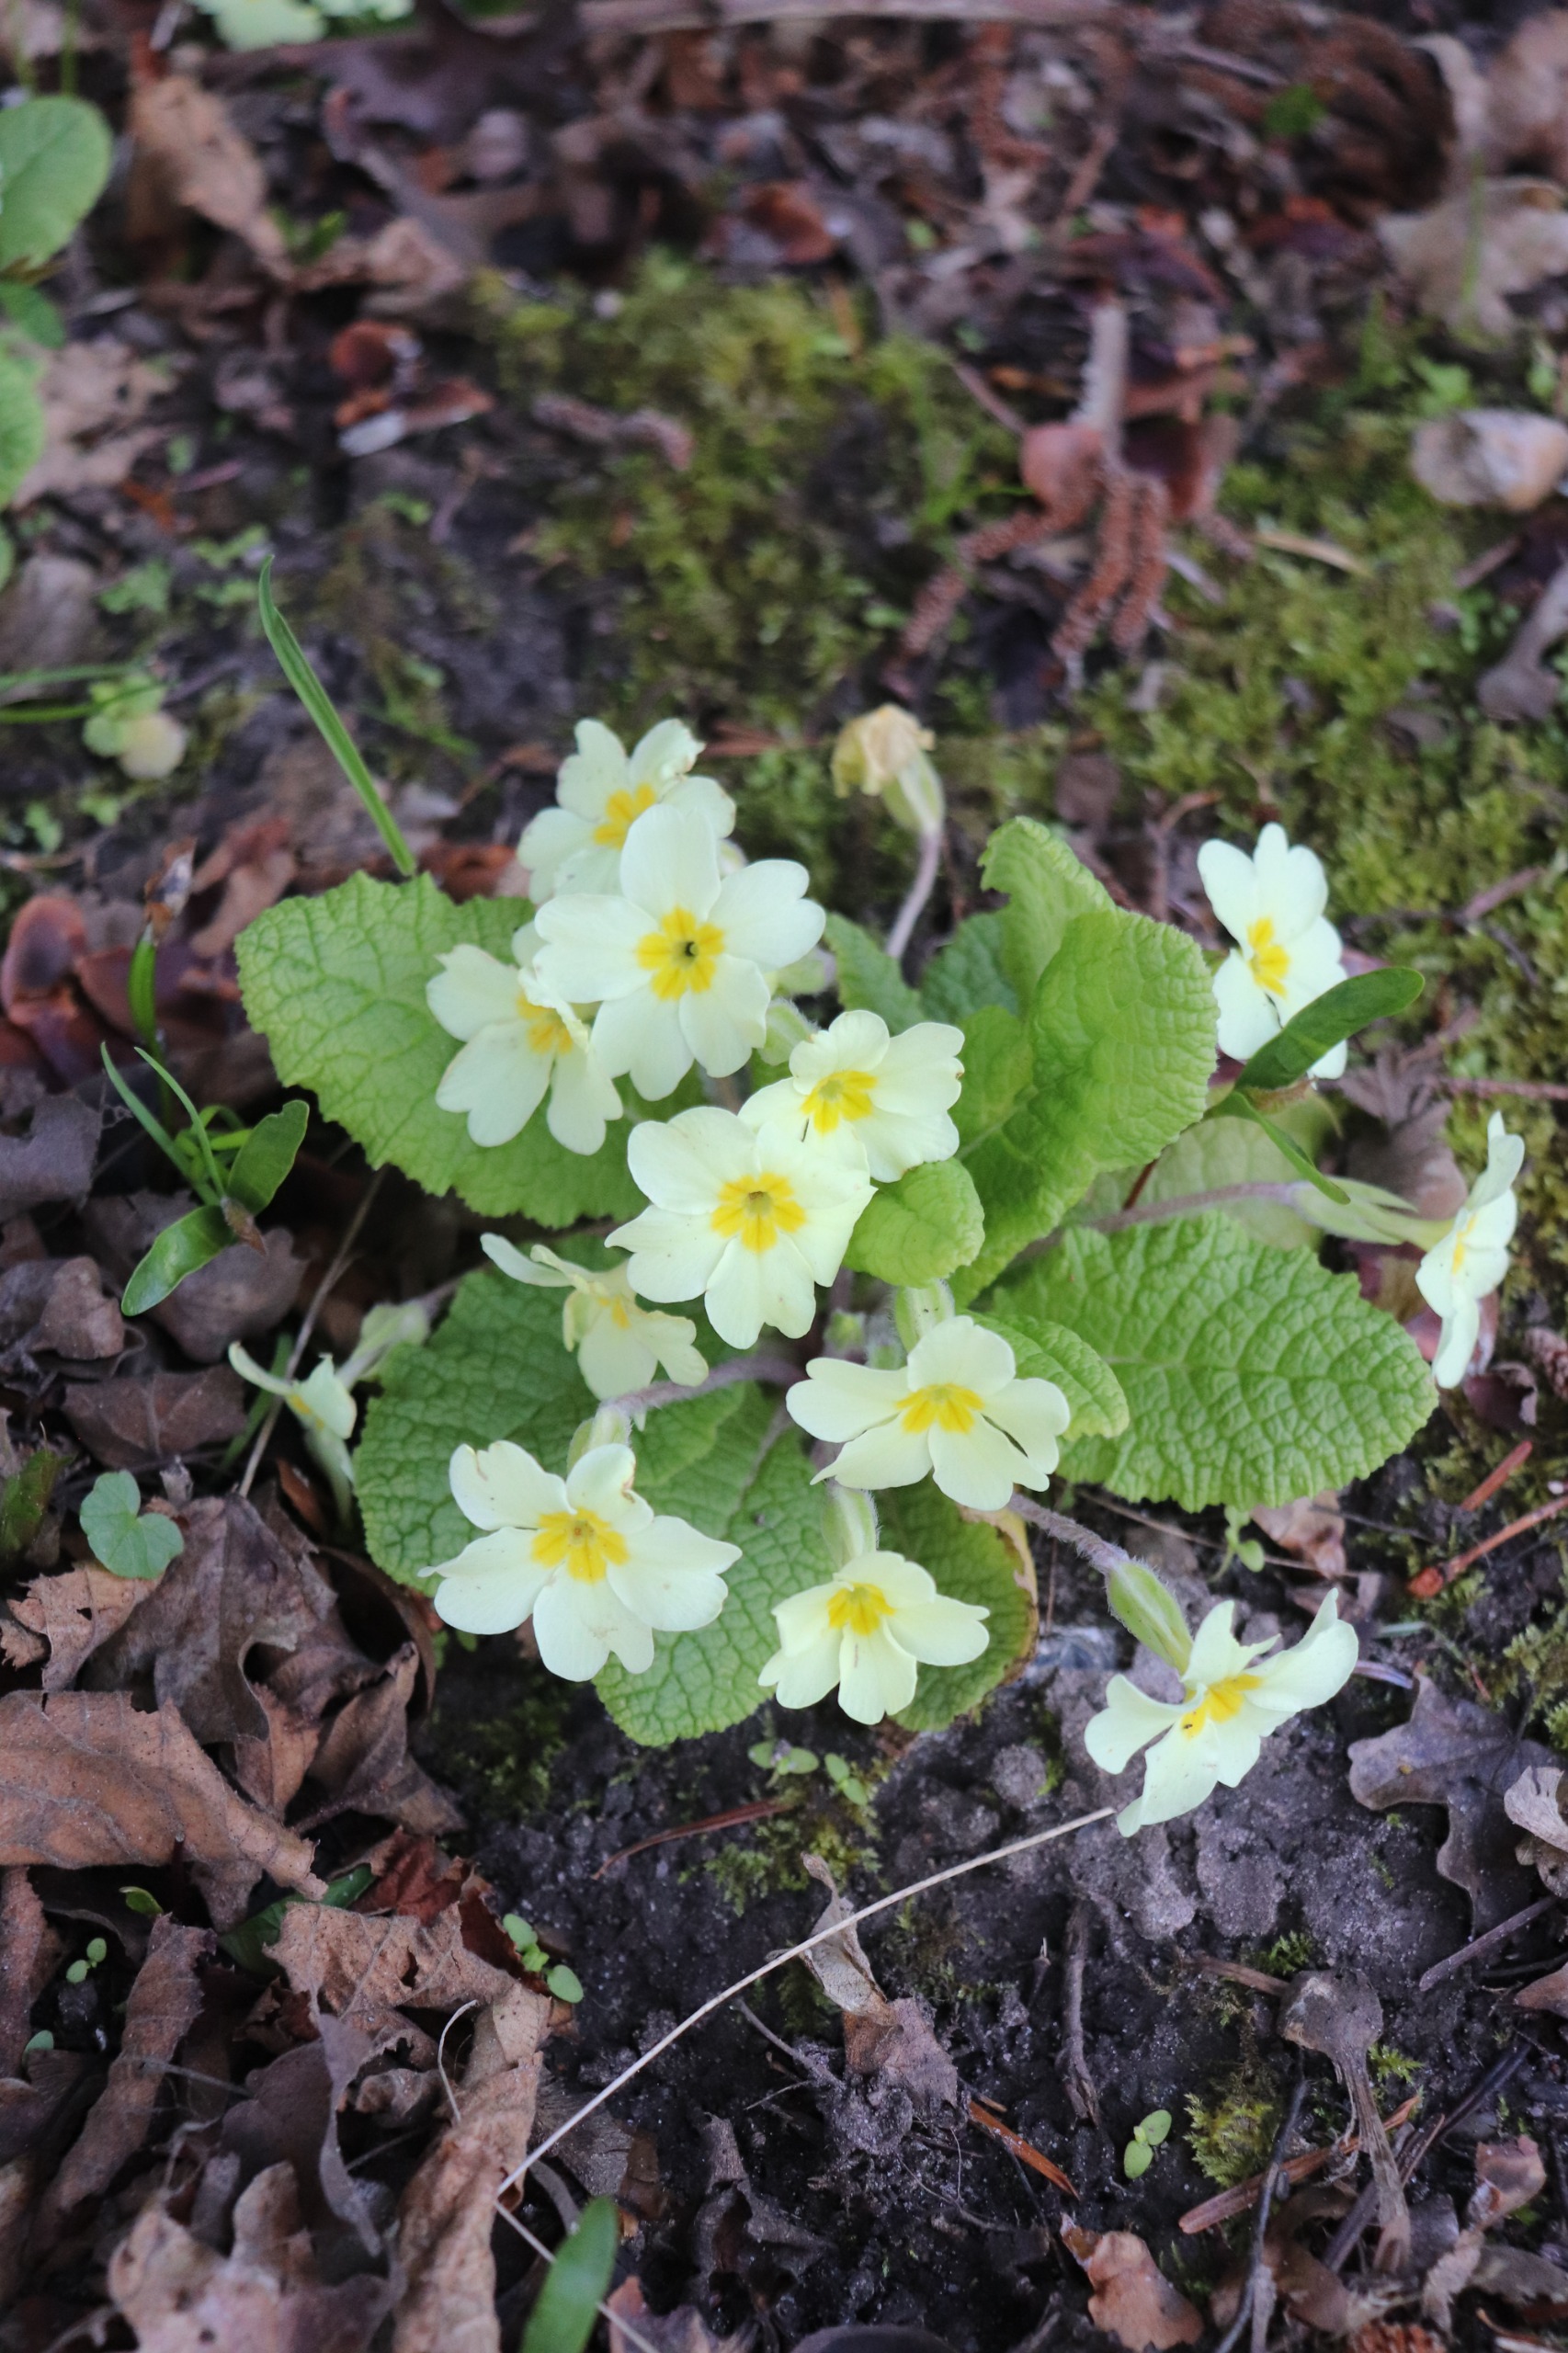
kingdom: Plantae
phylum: Tracheophyta
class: Magnoliopsida
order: Ericales
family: Primulaceae
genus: Primula
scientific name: Primula vulgaris
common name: Storblomstret kodriver
